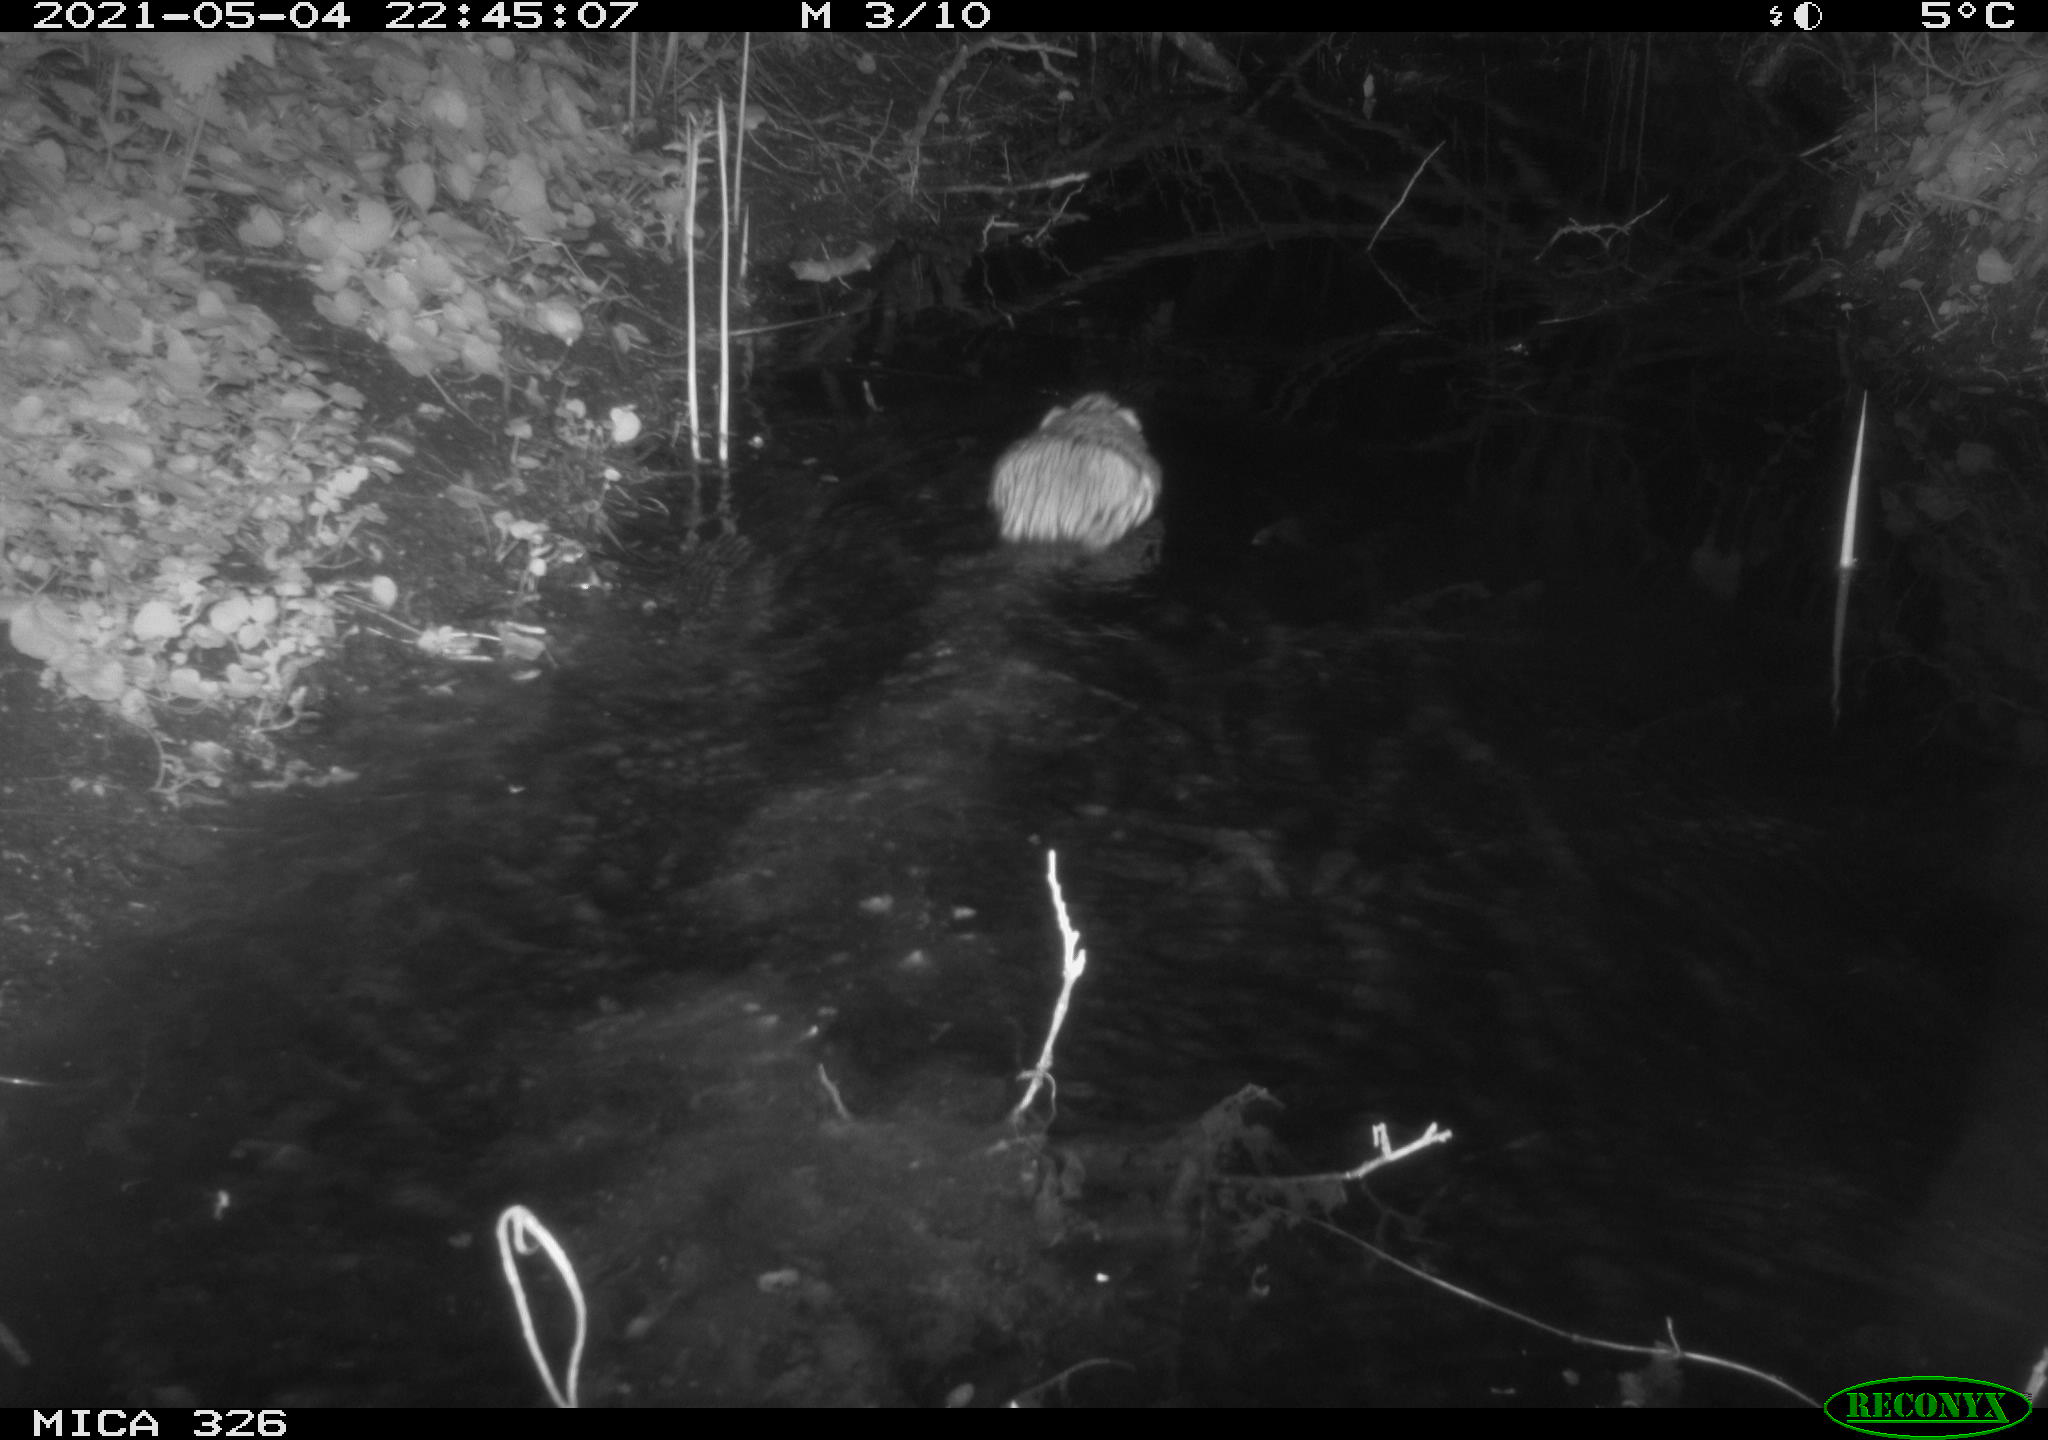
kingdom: Animalia
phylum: Chordata
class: Mammalia
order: Rodentia
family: Cricetidae
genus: Ondatra
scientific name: Ondatra zibethicus
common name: Muskrat
